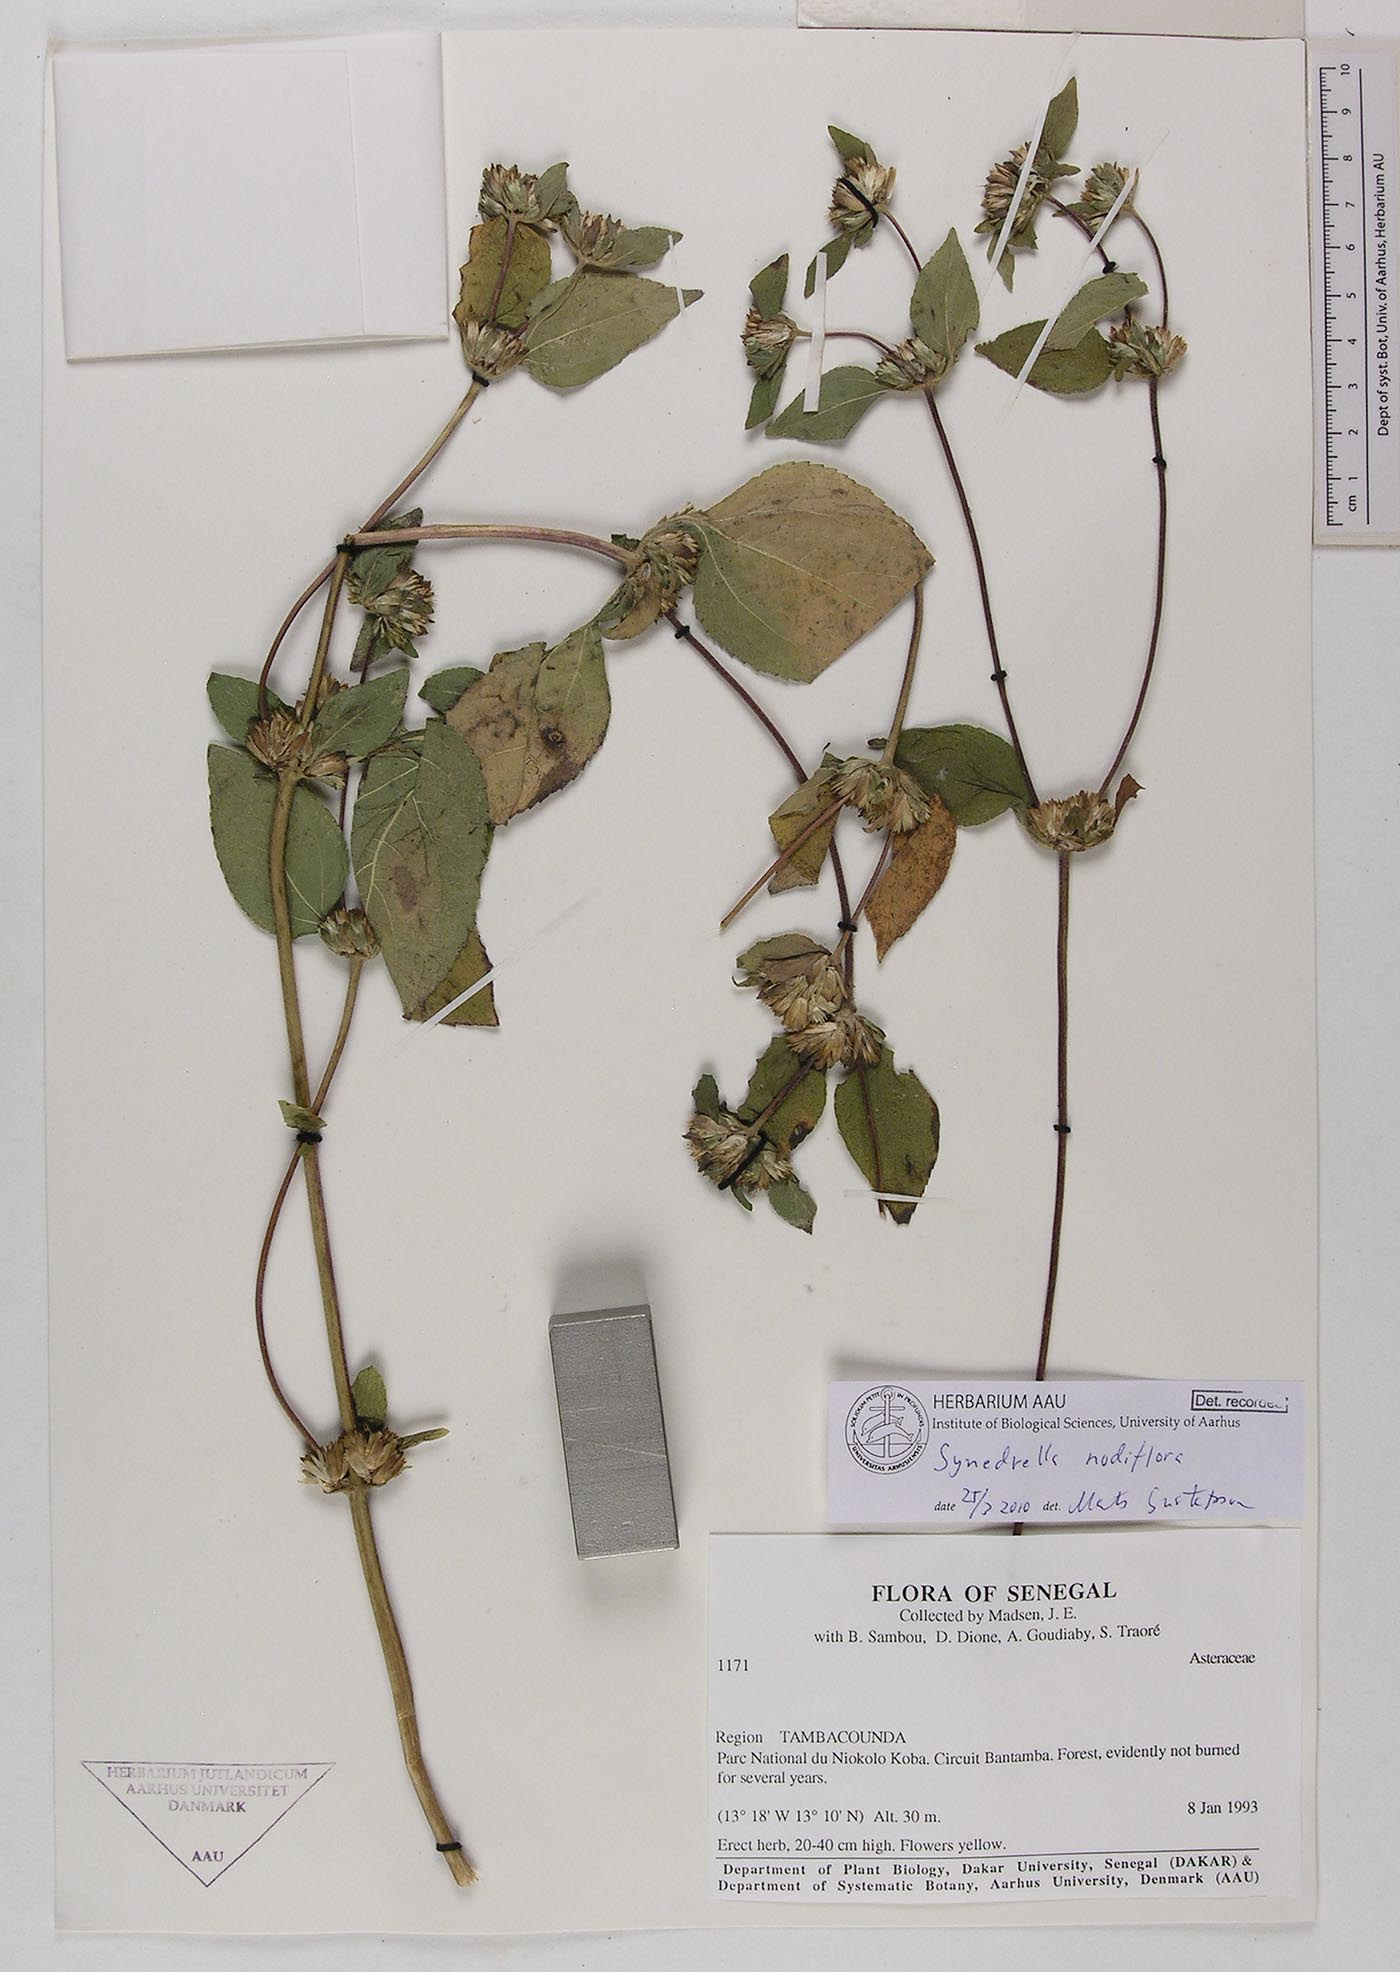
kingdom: Plantae
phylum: Tracheophyta
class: Magnoliopsida
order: Asterales
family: Asteraceae
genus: Synedrella
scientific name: Synedrella nodiflora
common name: Nodeweed
